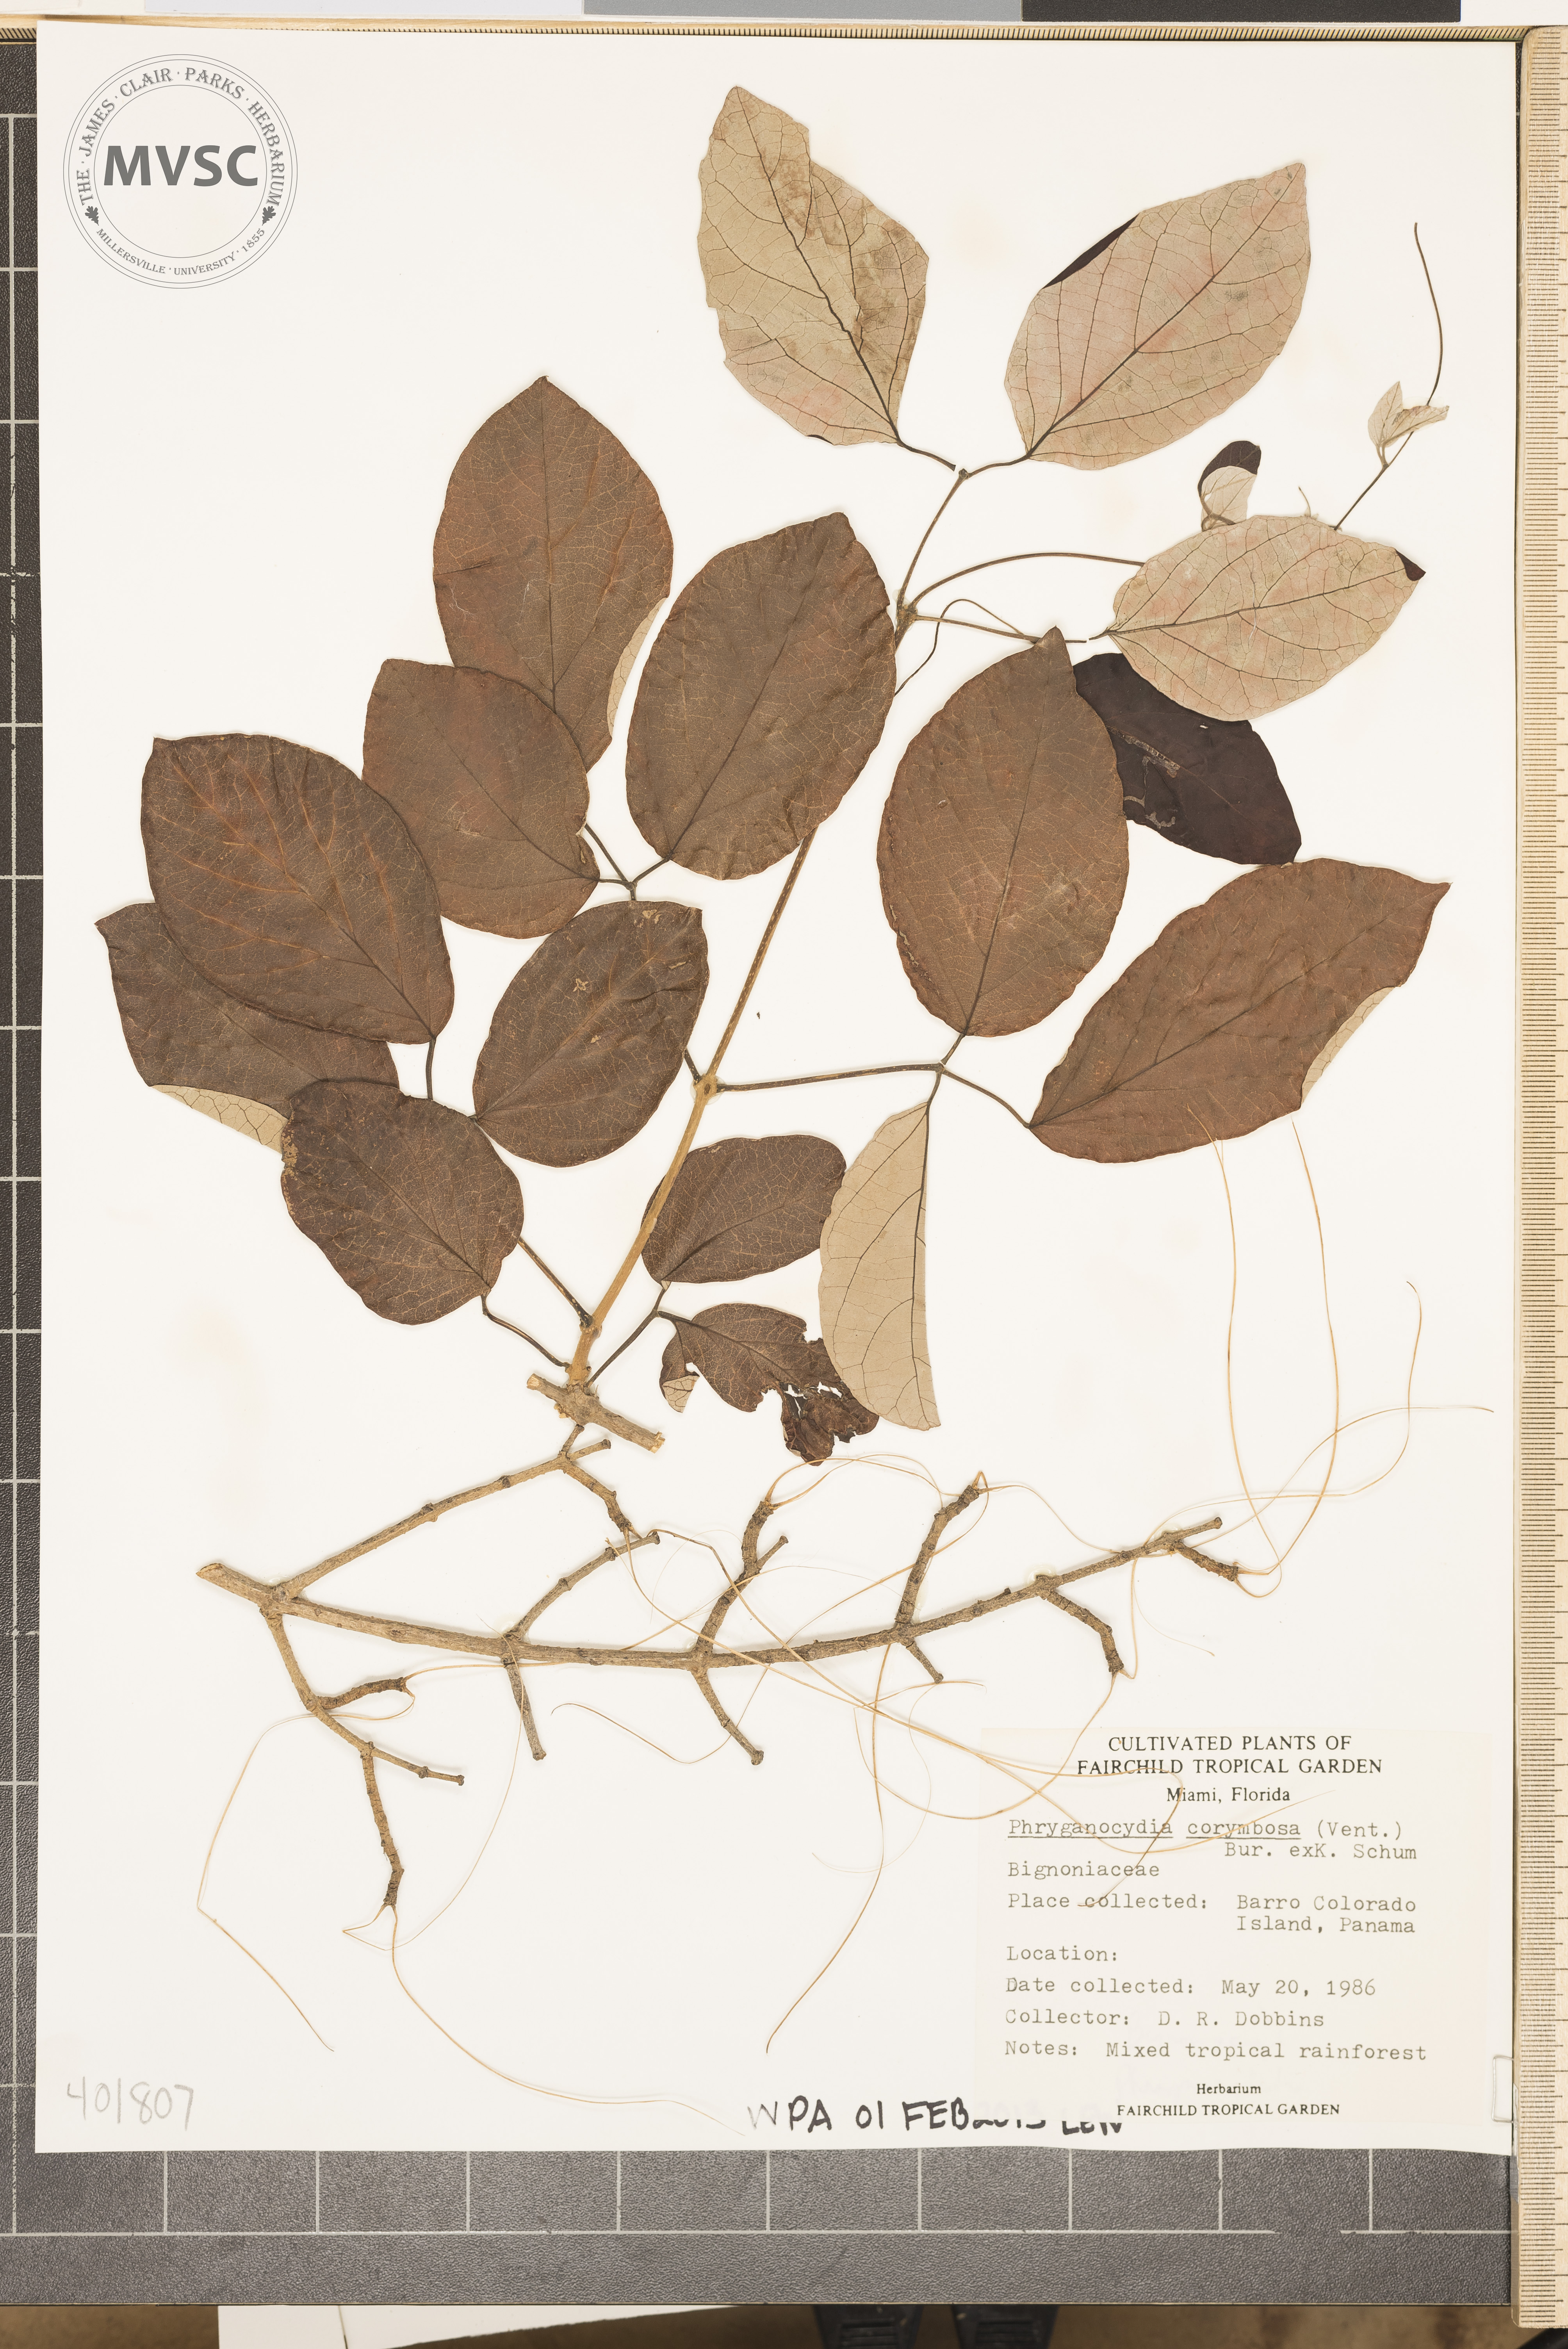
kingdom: Plantae
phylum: Tracheophyta
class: Magnoliopsida
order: Lamiales
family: Bignoniaceae
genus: Bignonia
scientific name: Bignonia corymbosa
